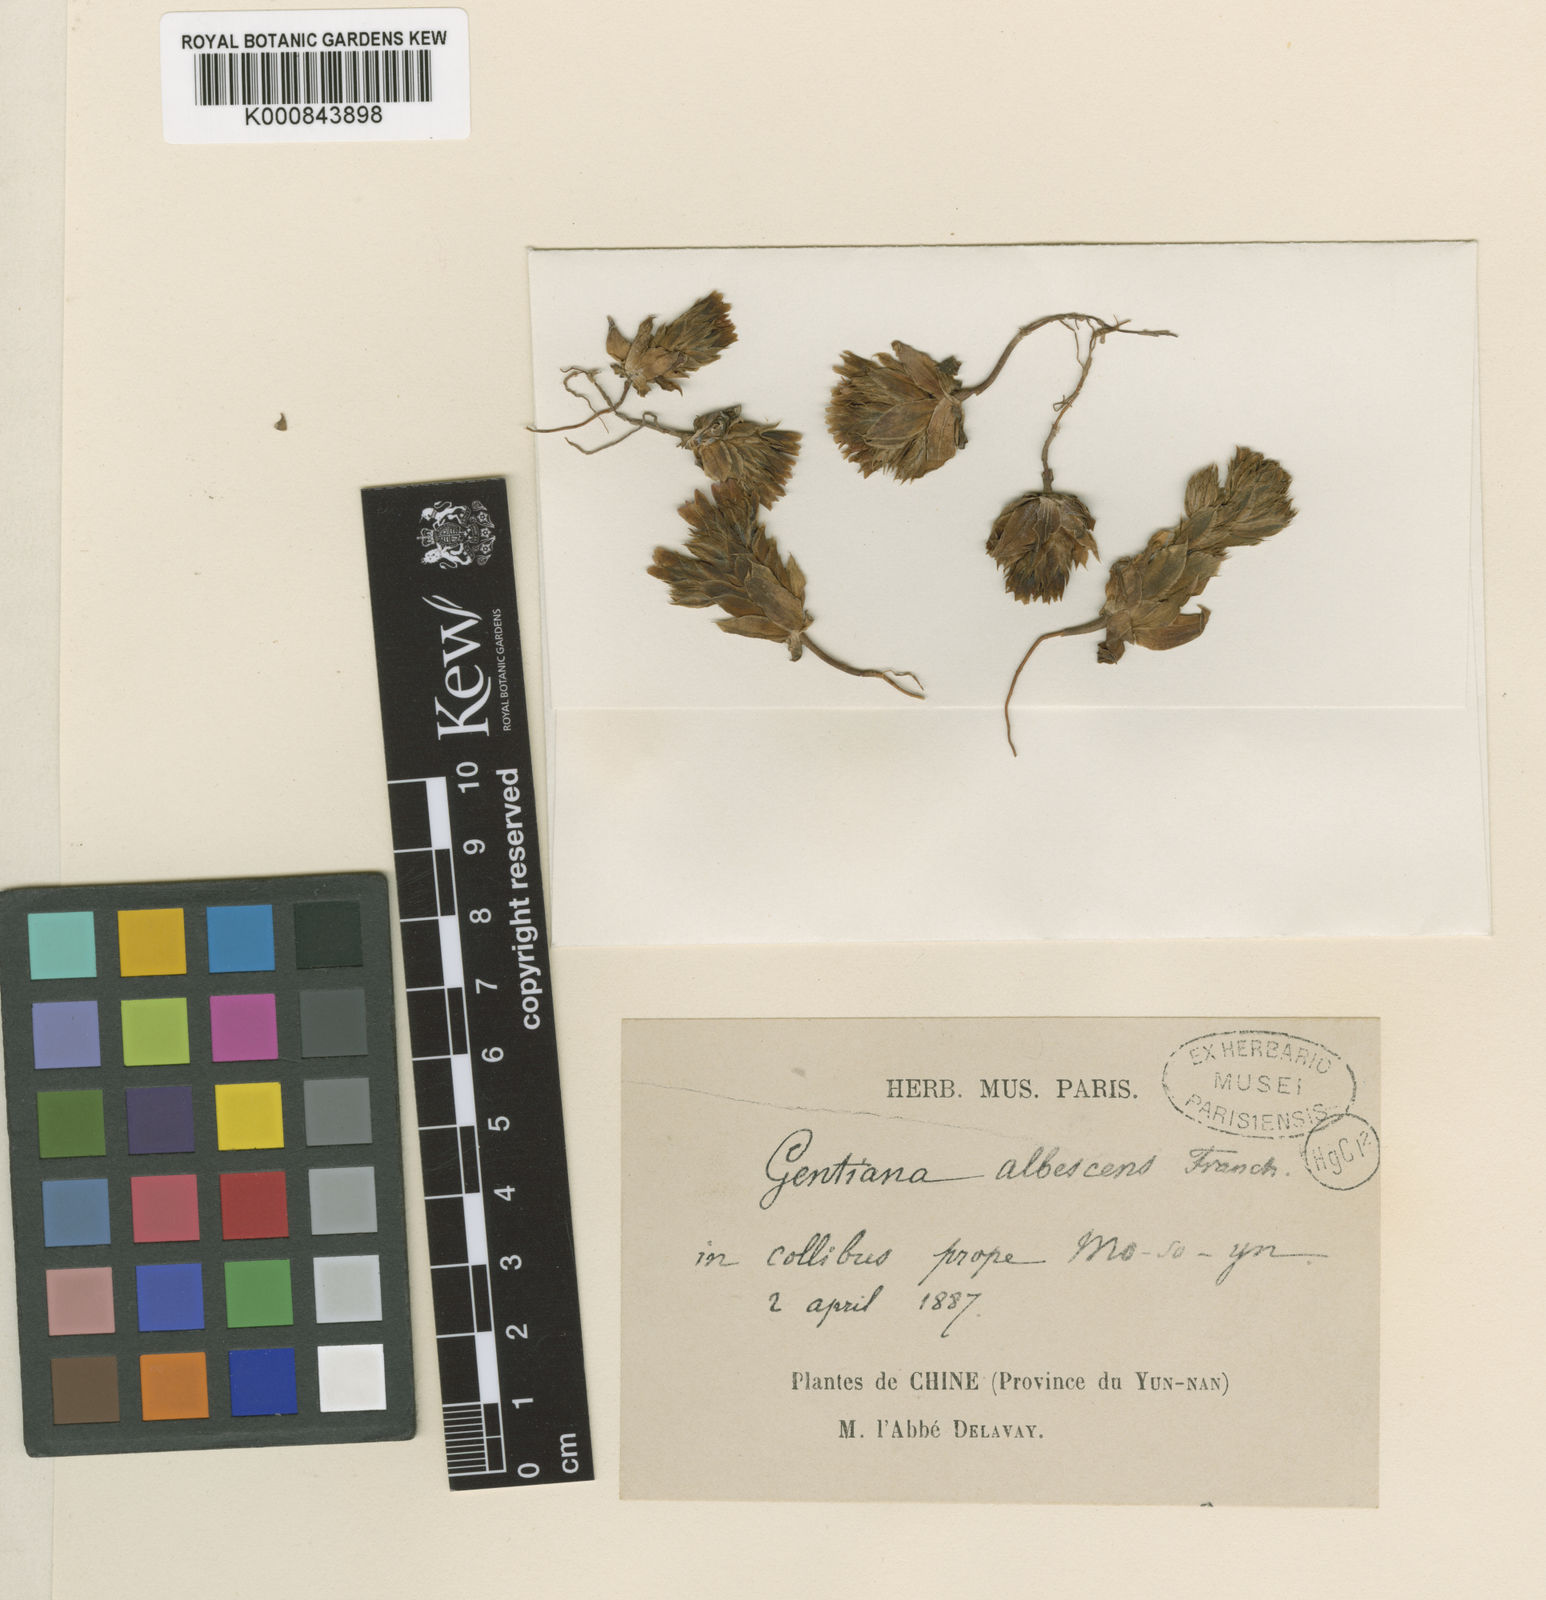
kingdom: Plantae
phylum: Tracheophyta
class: Magnoliopsida
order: Gentianales
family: Gentianaceae
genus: Gentiana
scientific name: Gentiana albomarginata
